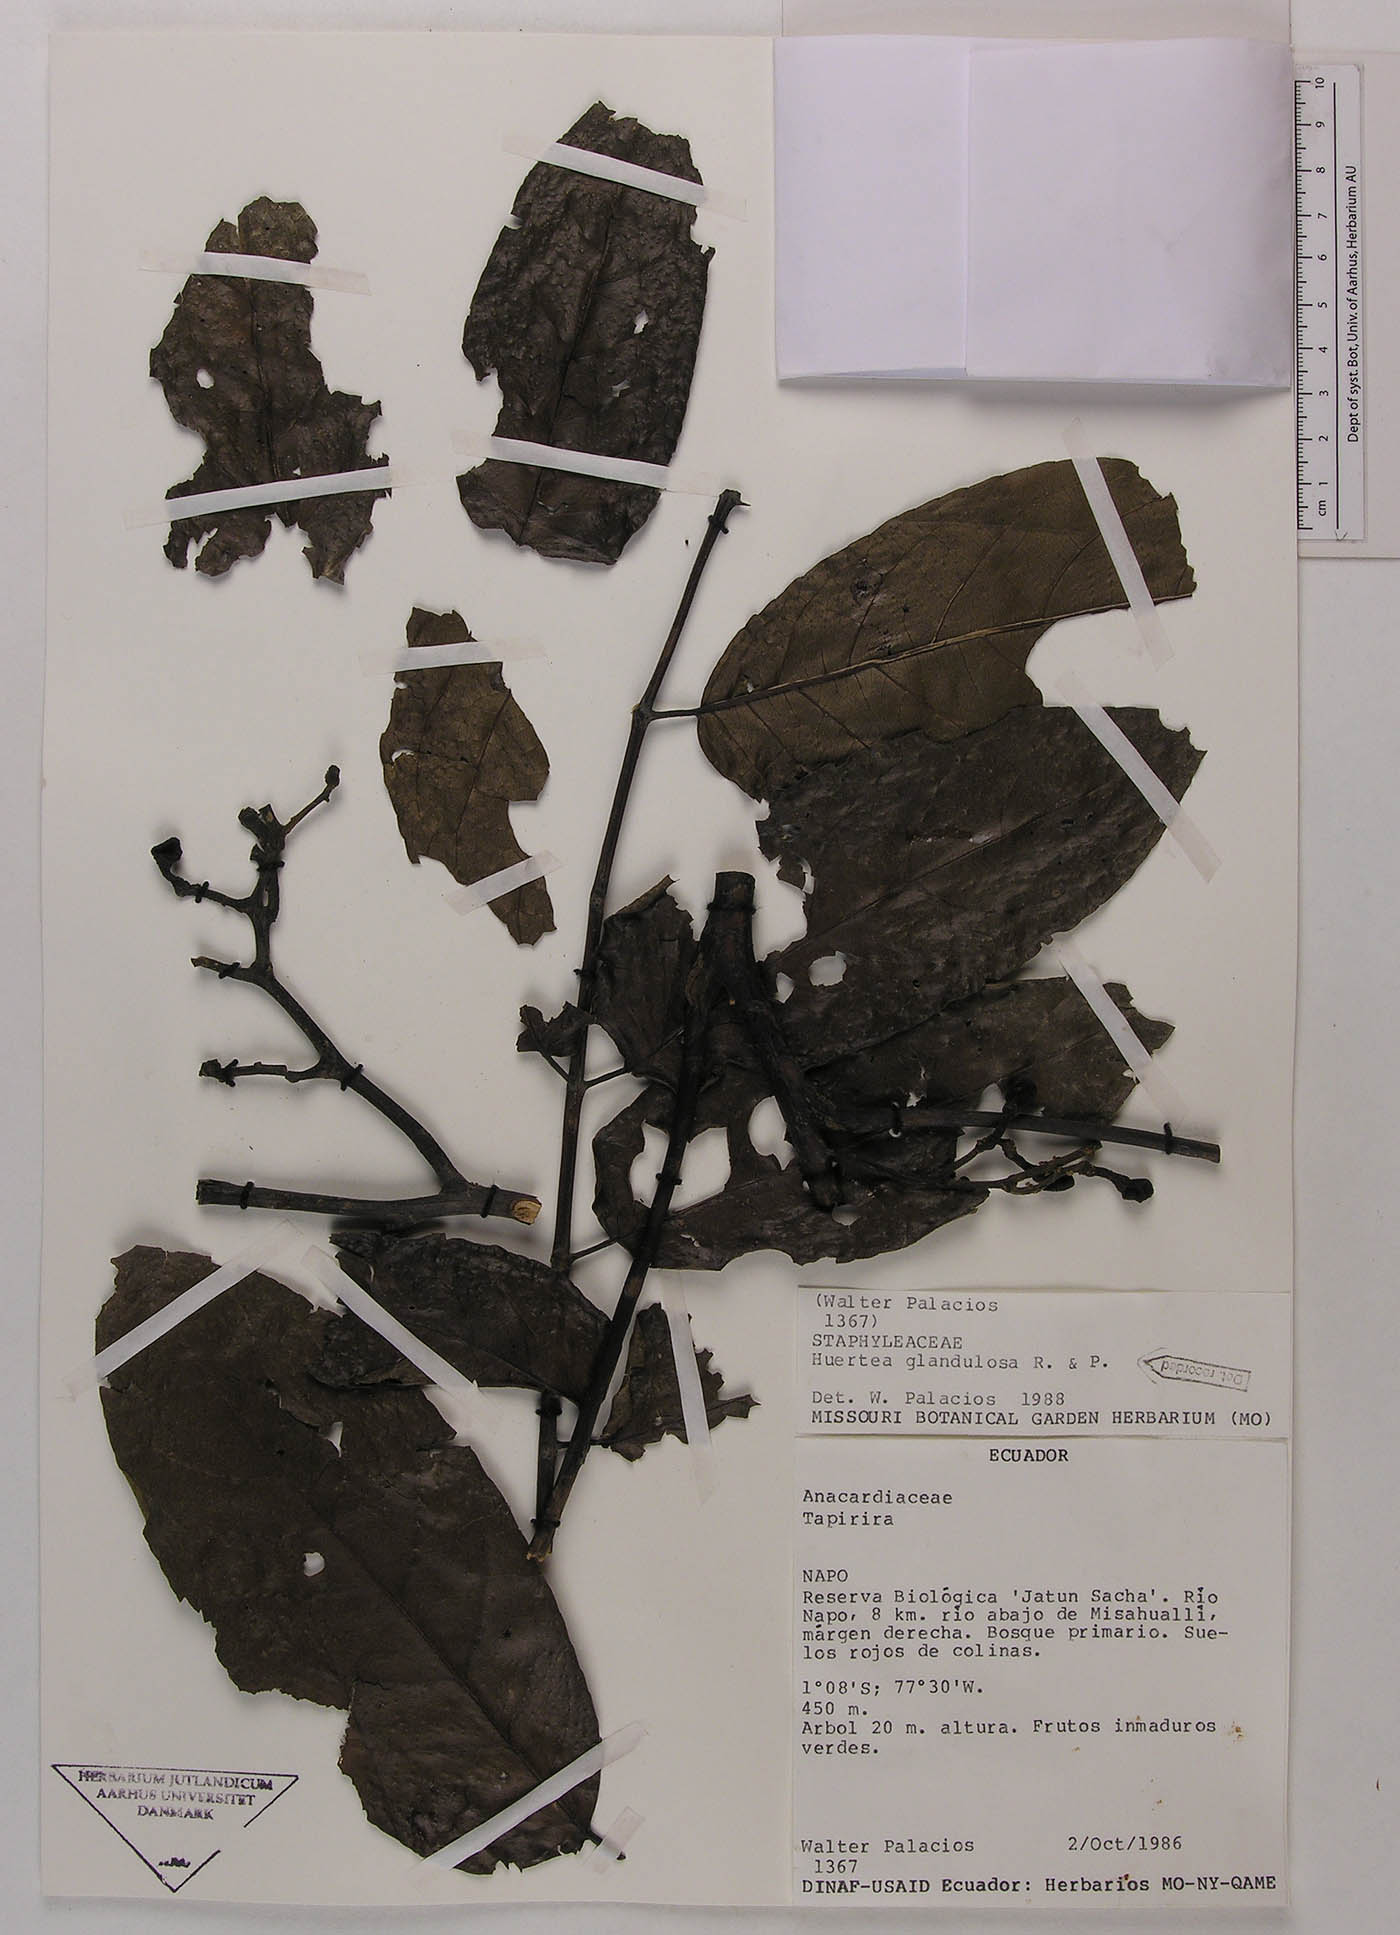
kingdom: Plantae
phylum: Tracheophyta
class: Magnoliopsida
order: Huerteales
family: Tapisciaceae
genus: Huertea
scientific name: Huertea glandulosa
